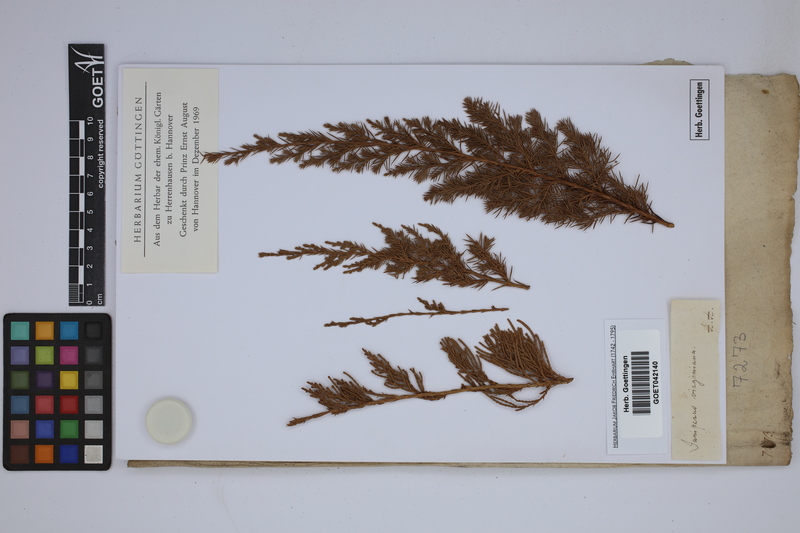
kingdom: Plantae
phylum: Tracheophyta
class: Pinopsida
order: Pinales
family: Cupressaceae
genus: Juniperus
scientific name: Juniperus virginiana
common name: Red juniper
